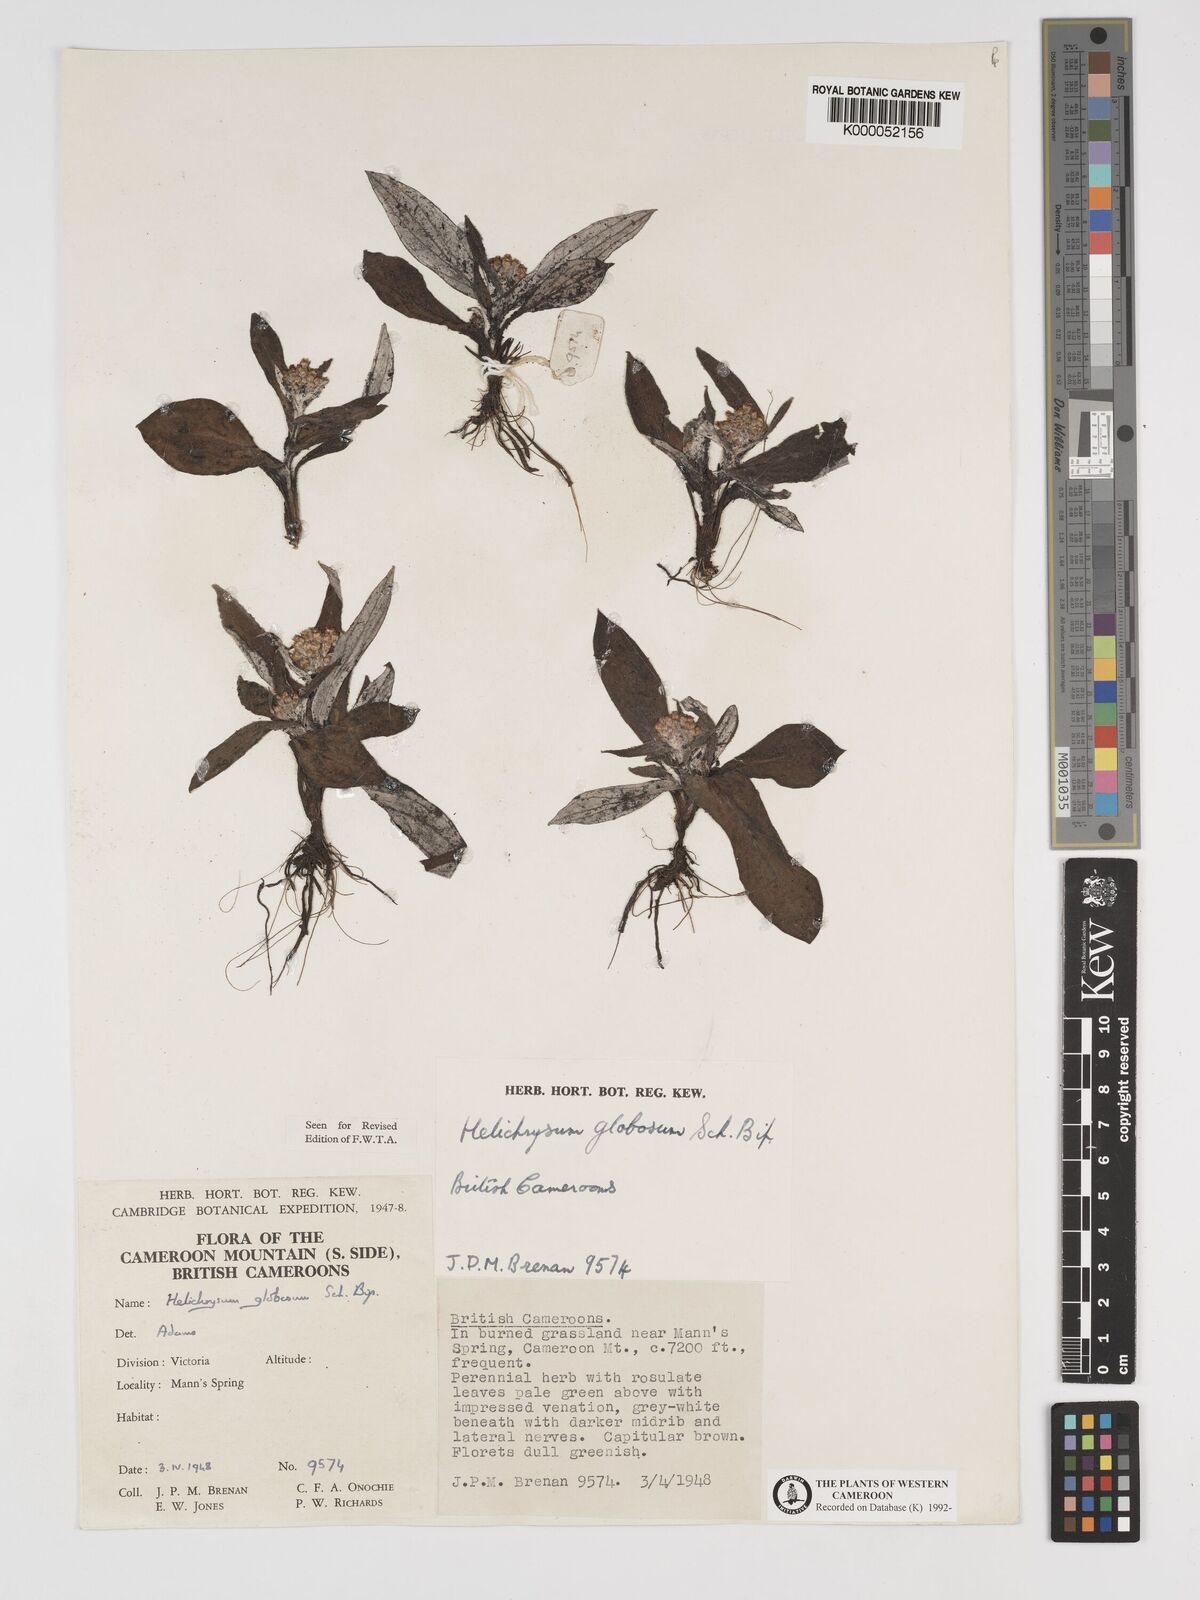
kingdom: Plantae
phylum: Tracheophyta
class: Magnoliopsida
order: Asterales
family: Asteraceae
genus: Helichrysum
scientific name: Helichrysum
